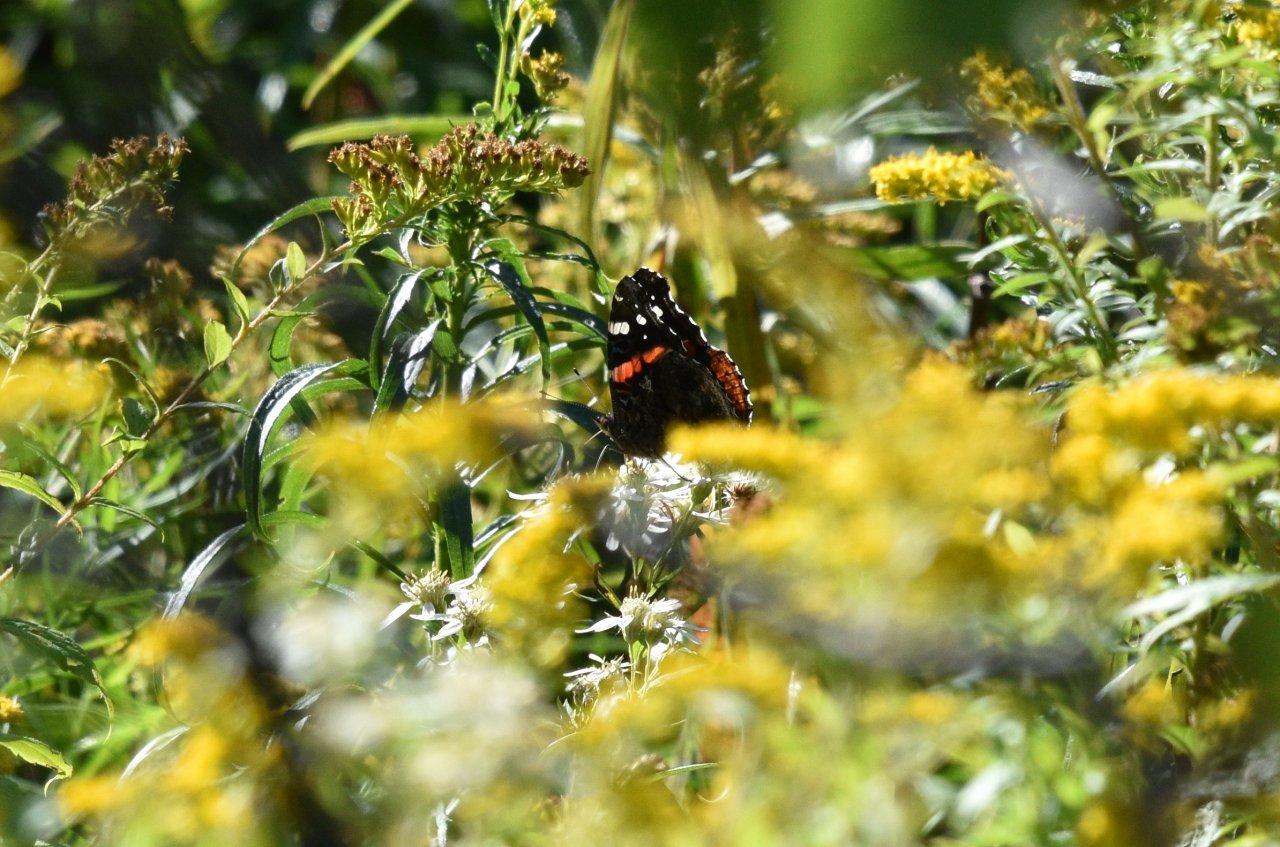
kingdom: Animalia
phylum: Arthropoda
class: Insecta
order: Lepidoptera
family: Nymphalidae
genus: Vanessa
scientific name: Vanessa atalanta
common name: Red Admiral
